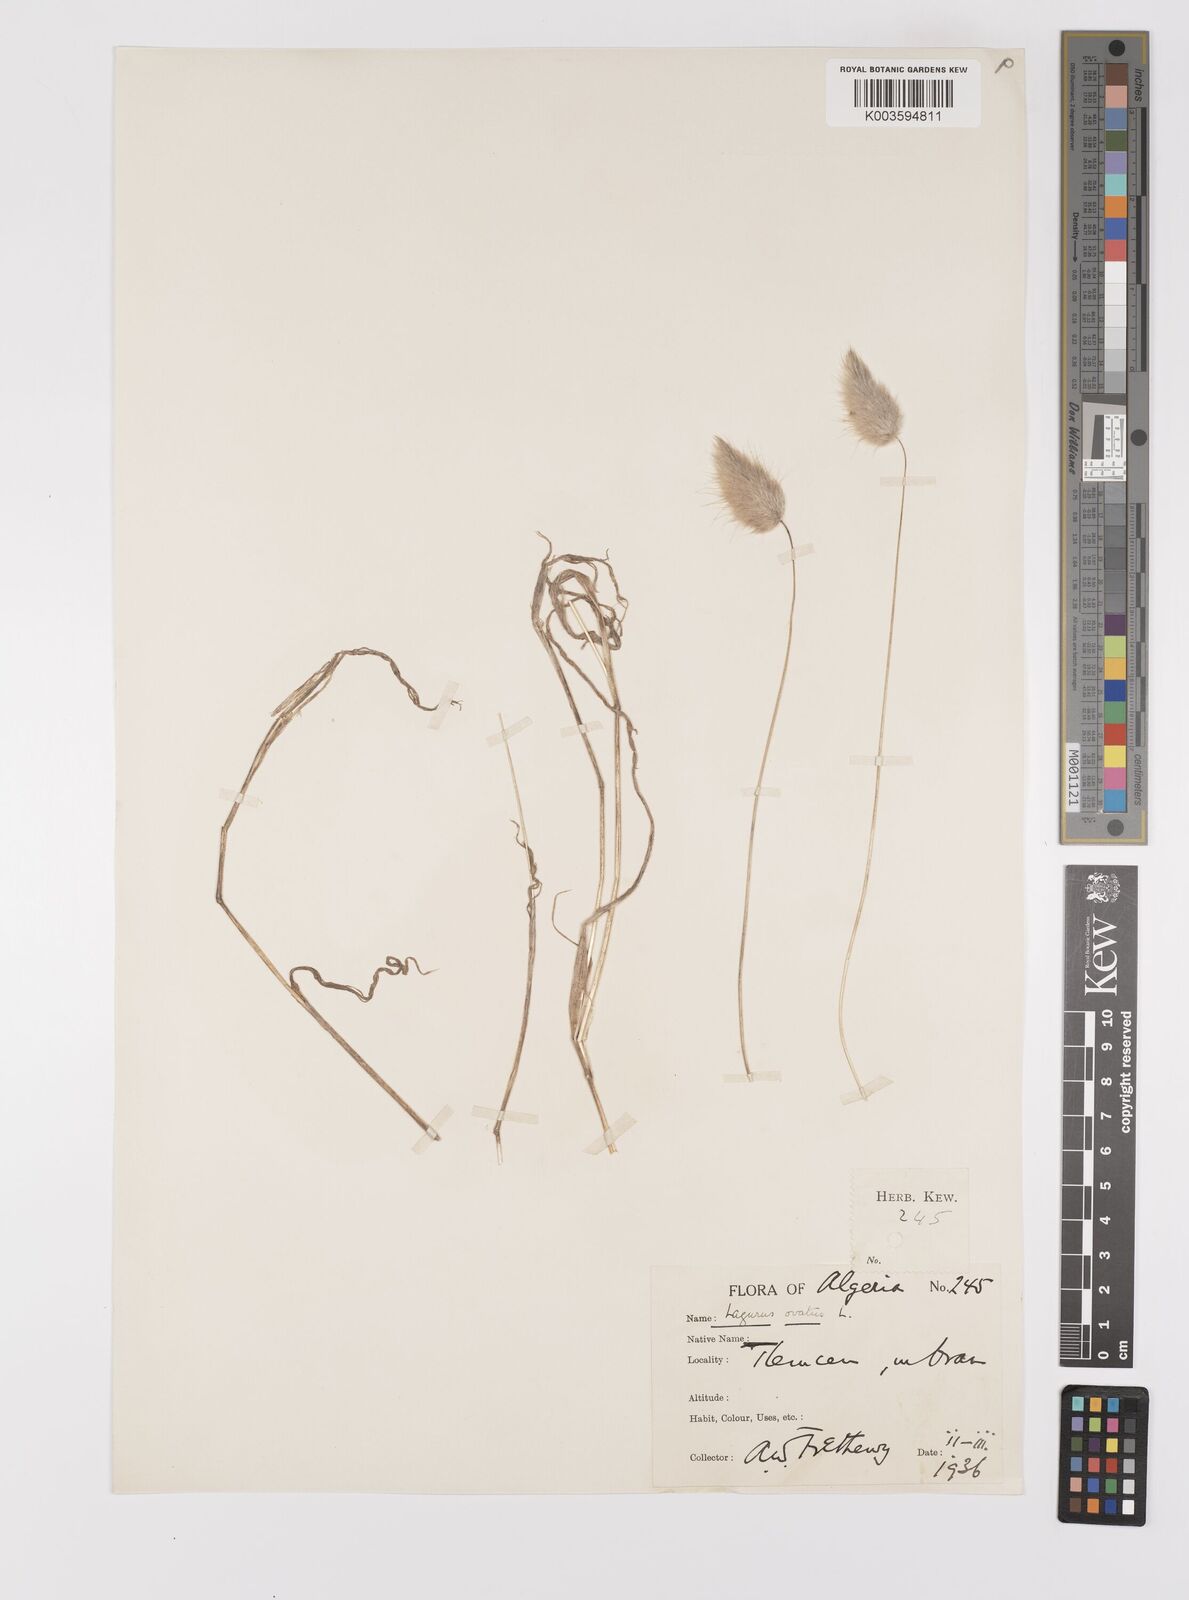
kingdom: Plantae
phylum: Tracheophyta
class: Liliopsida
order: Poales
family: Poaceae
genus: Lagurus
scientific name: Lagurus ovatus
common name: Hare's-tail
